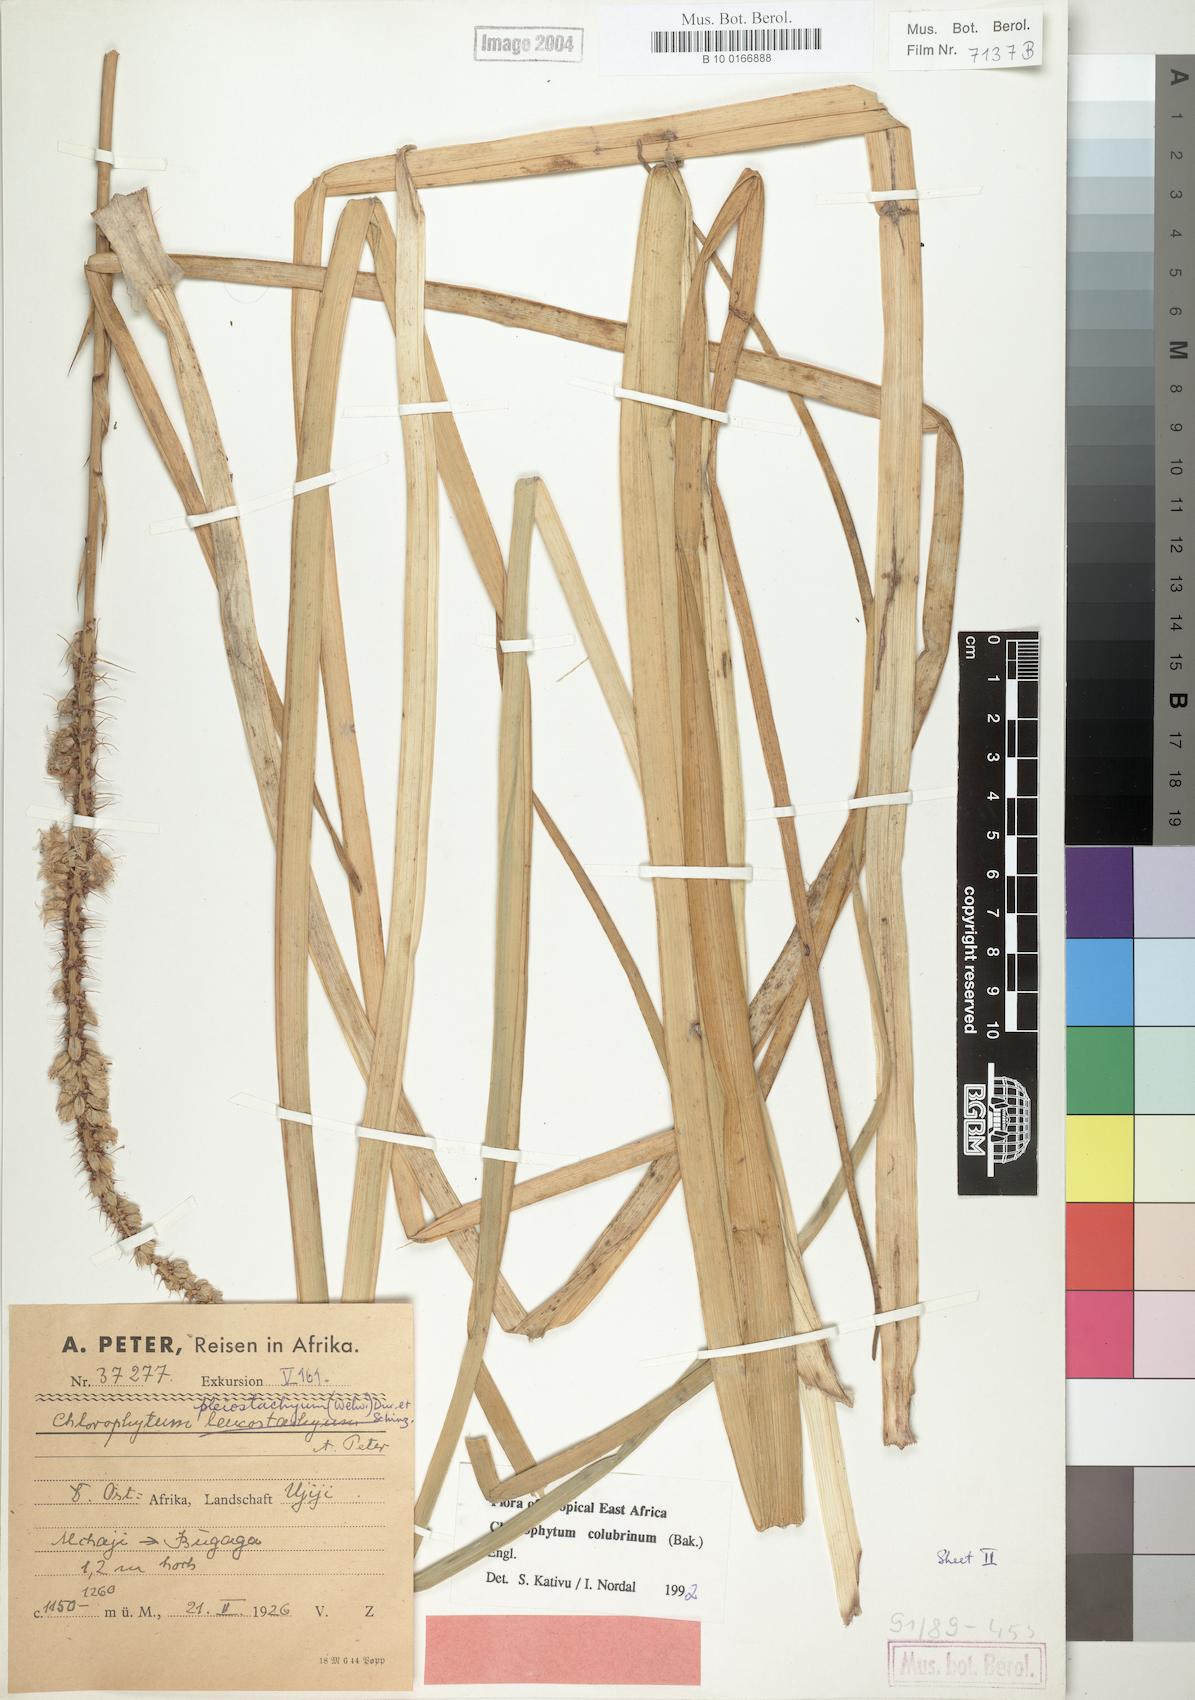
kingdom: Plantae
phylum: Tracheophyta
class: Liliopsida
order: Asparagales
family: Asparagaceae
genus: Chlorophytum
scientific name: Chlorophytum colubrinum
